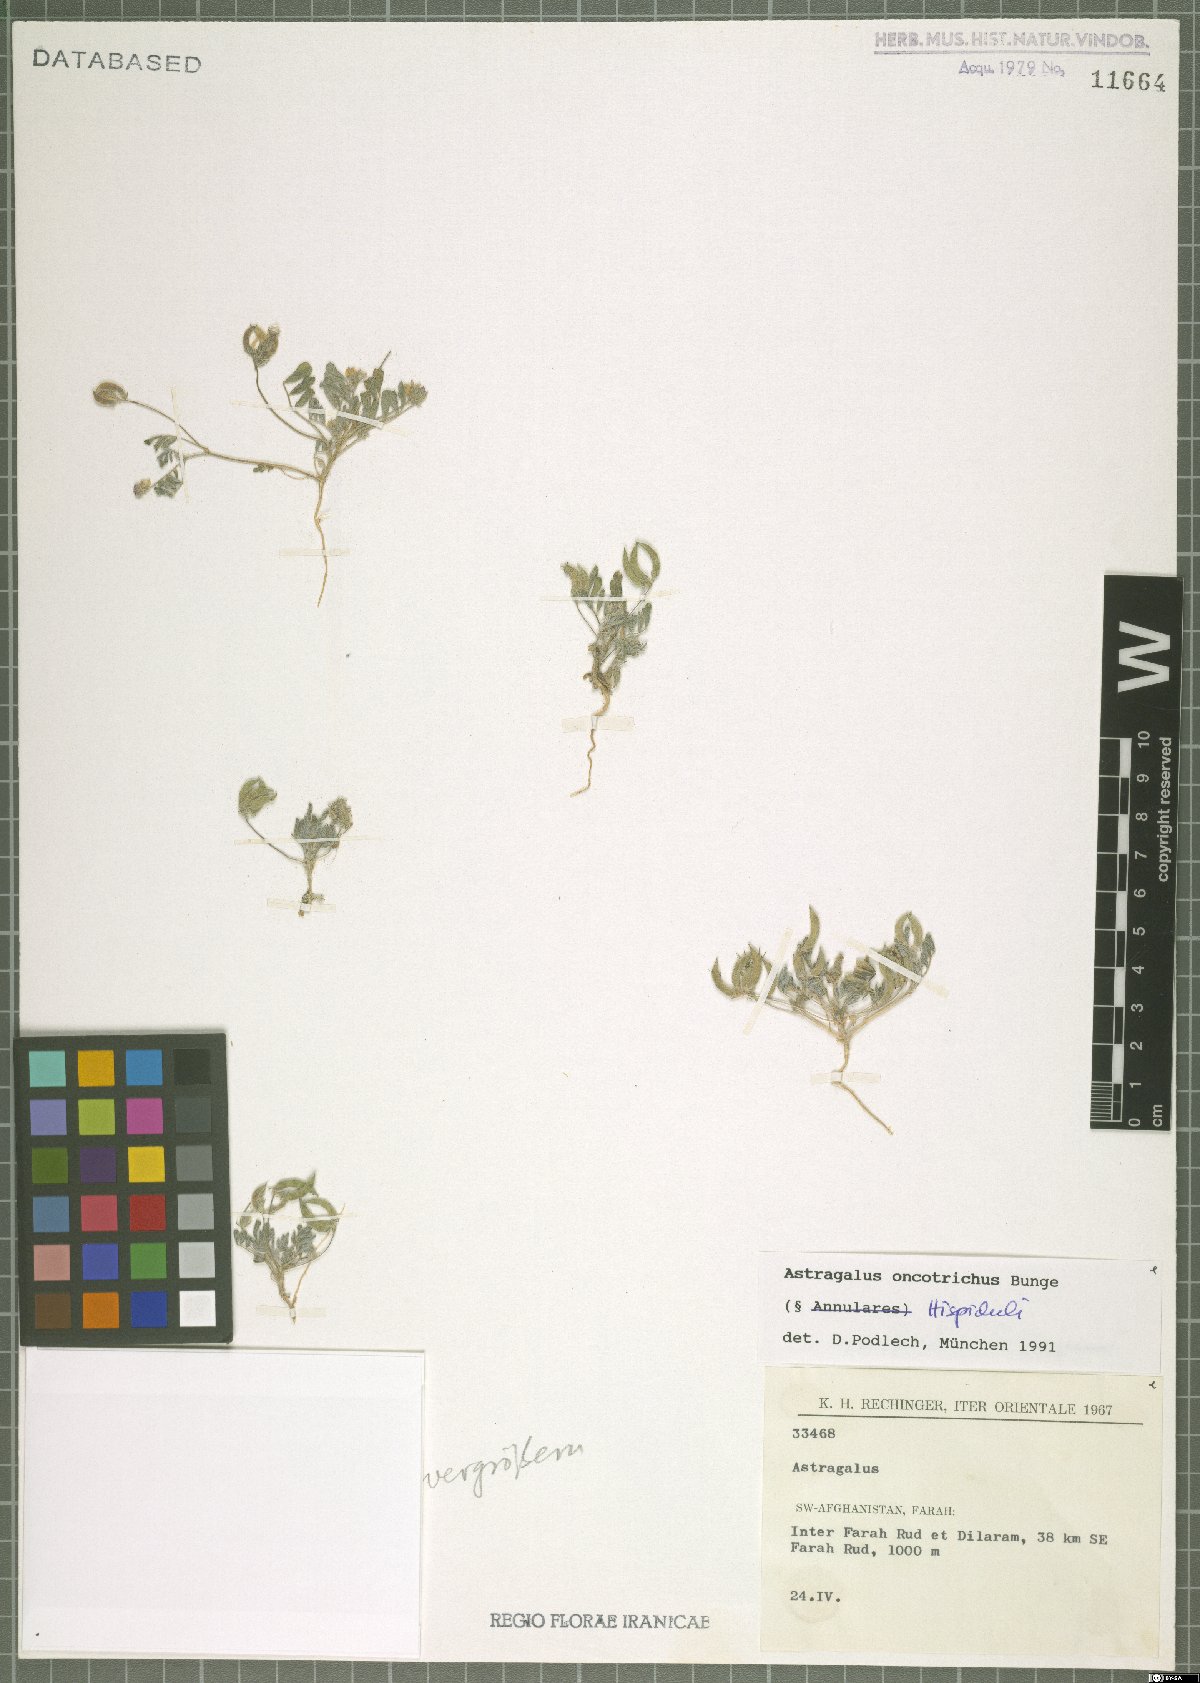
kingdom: Plantae
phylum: Tracheophyta
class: Magnoliopsida
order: Fabales
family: Fabaceae
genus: Astragalus
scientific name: Astragalus oncotrichus
